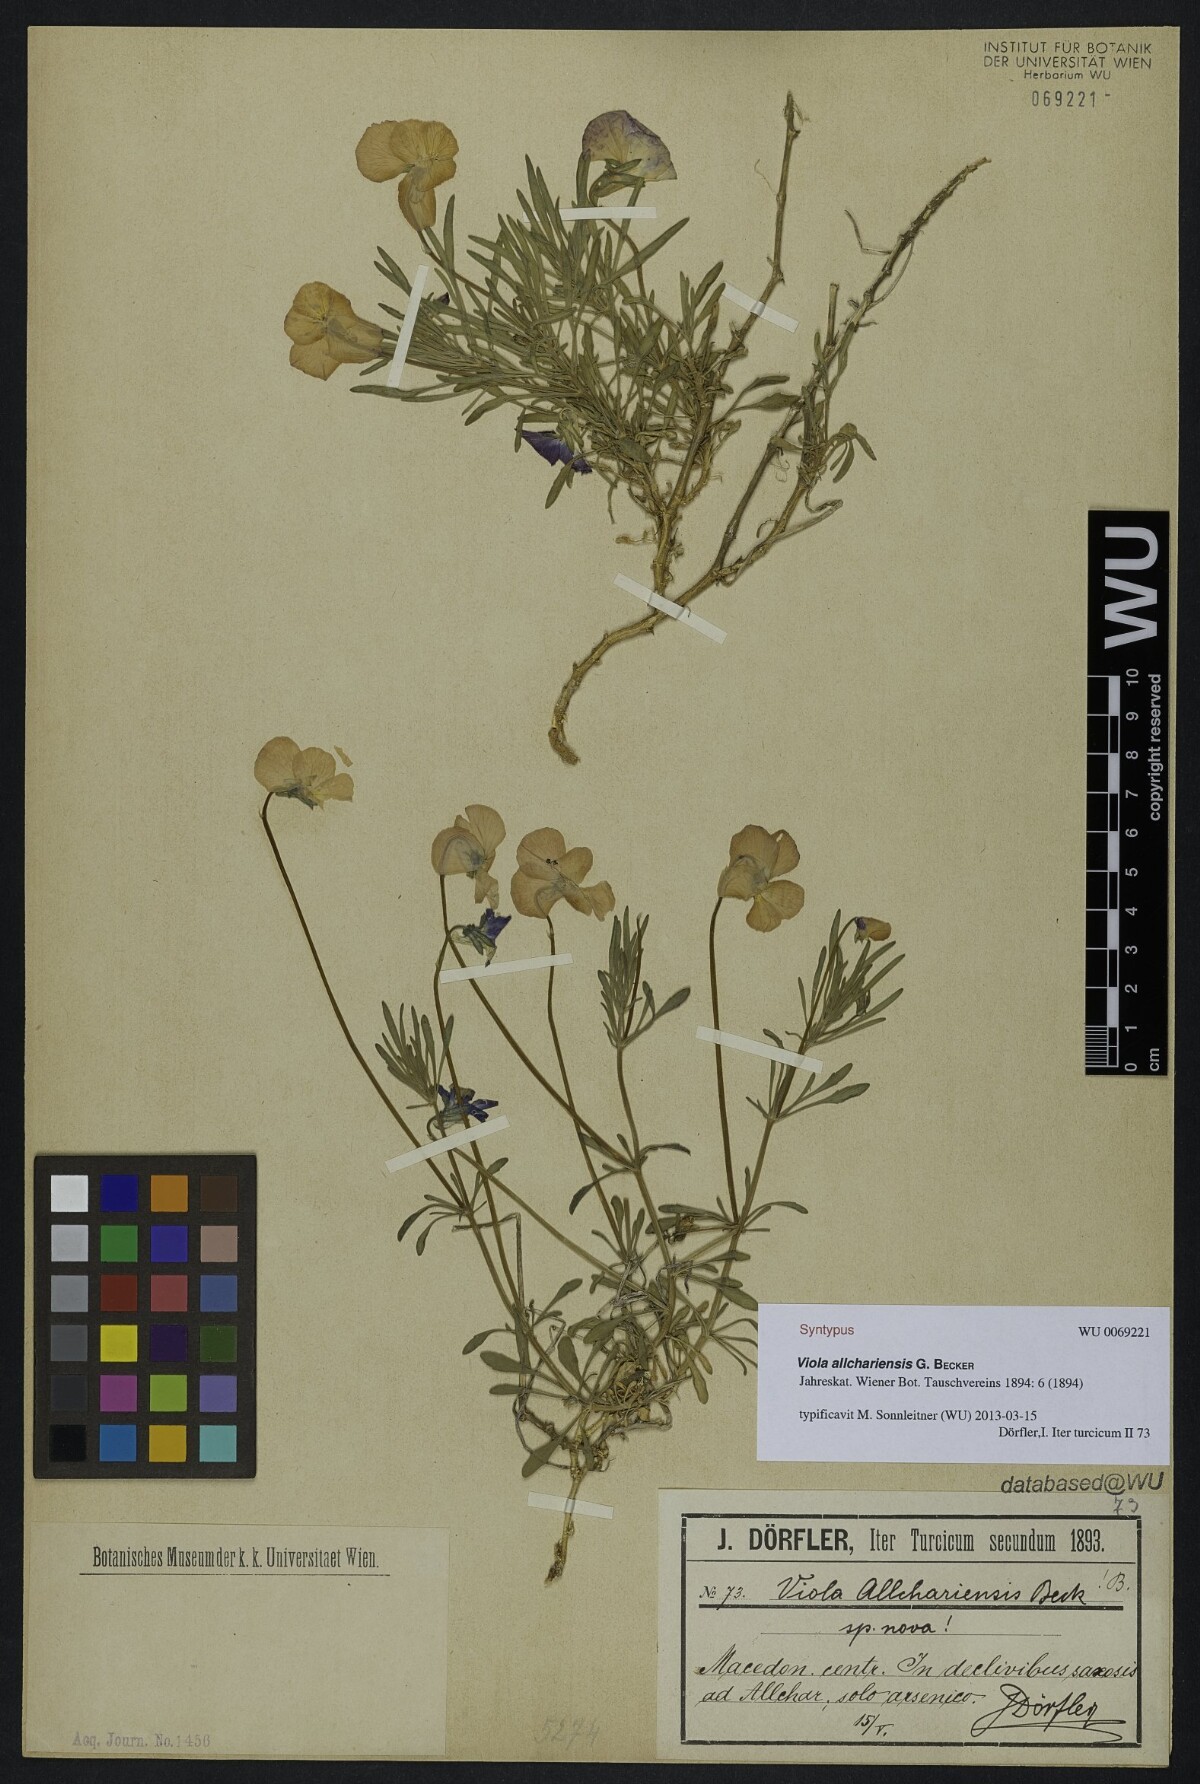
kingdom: Plantae
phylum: Tracheophyta
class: Magnoliopsida
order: Malpighiales
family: Violaceae
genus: Viola
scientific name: Viola allchariensis
